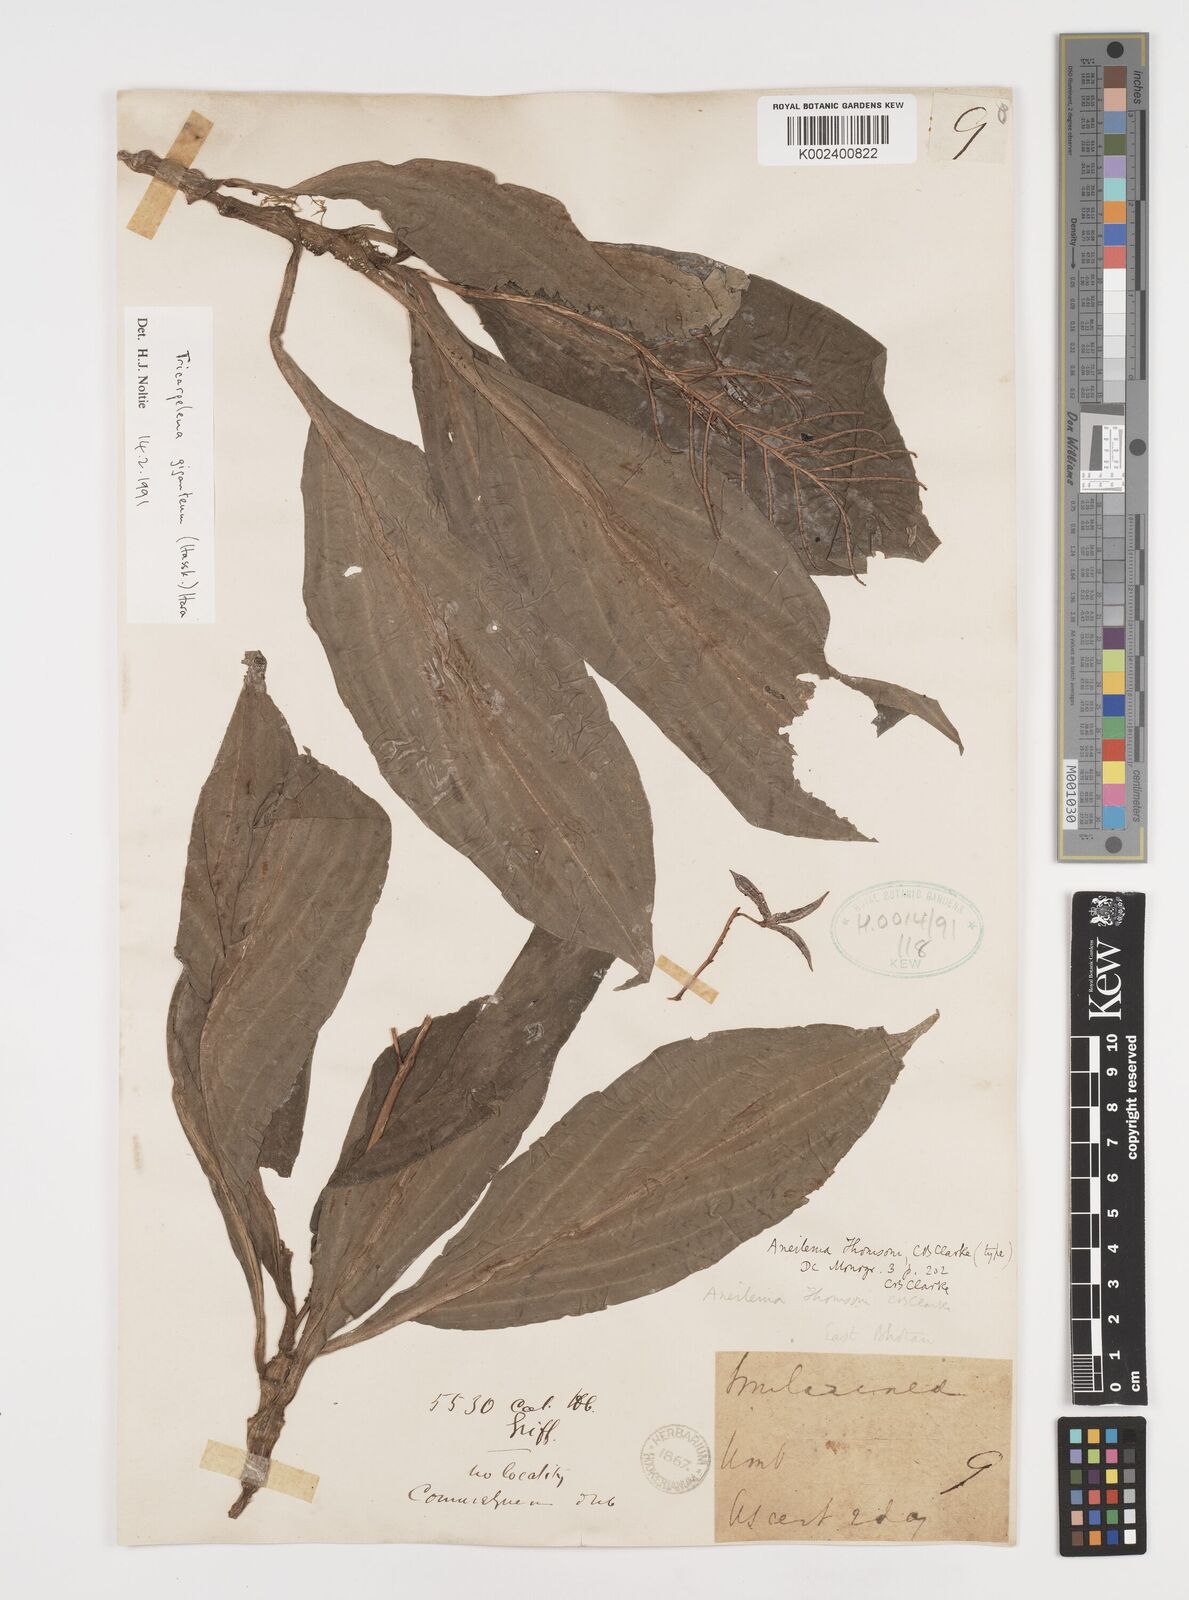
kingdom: Plantae
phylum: Tracheophyta
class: Liliopsida
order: Commelinales
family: Commelinaceae
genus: Tricarpelema
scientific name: Tricarpelema giganteum
